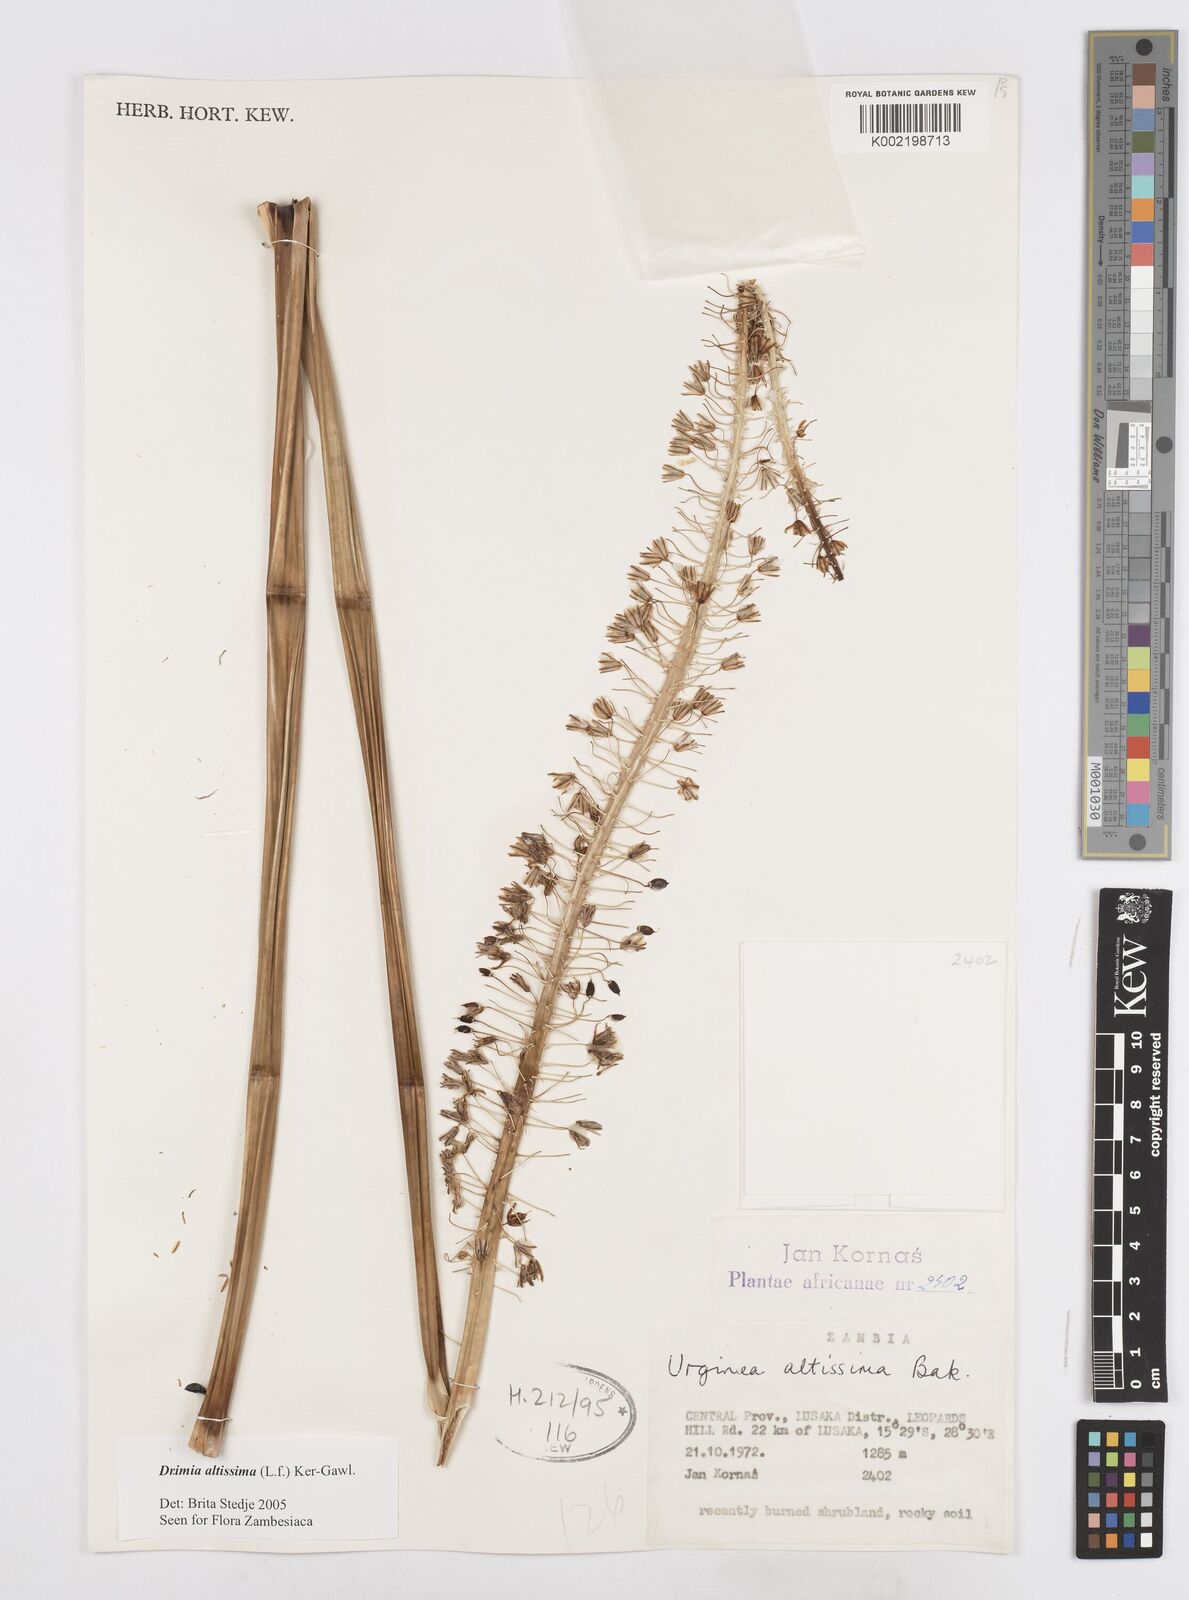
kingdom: Plantae
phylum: Tracheophyta
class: Liliopsida
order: Asparagales
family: Asparagaceae
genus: Drimia
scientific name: Drimia
